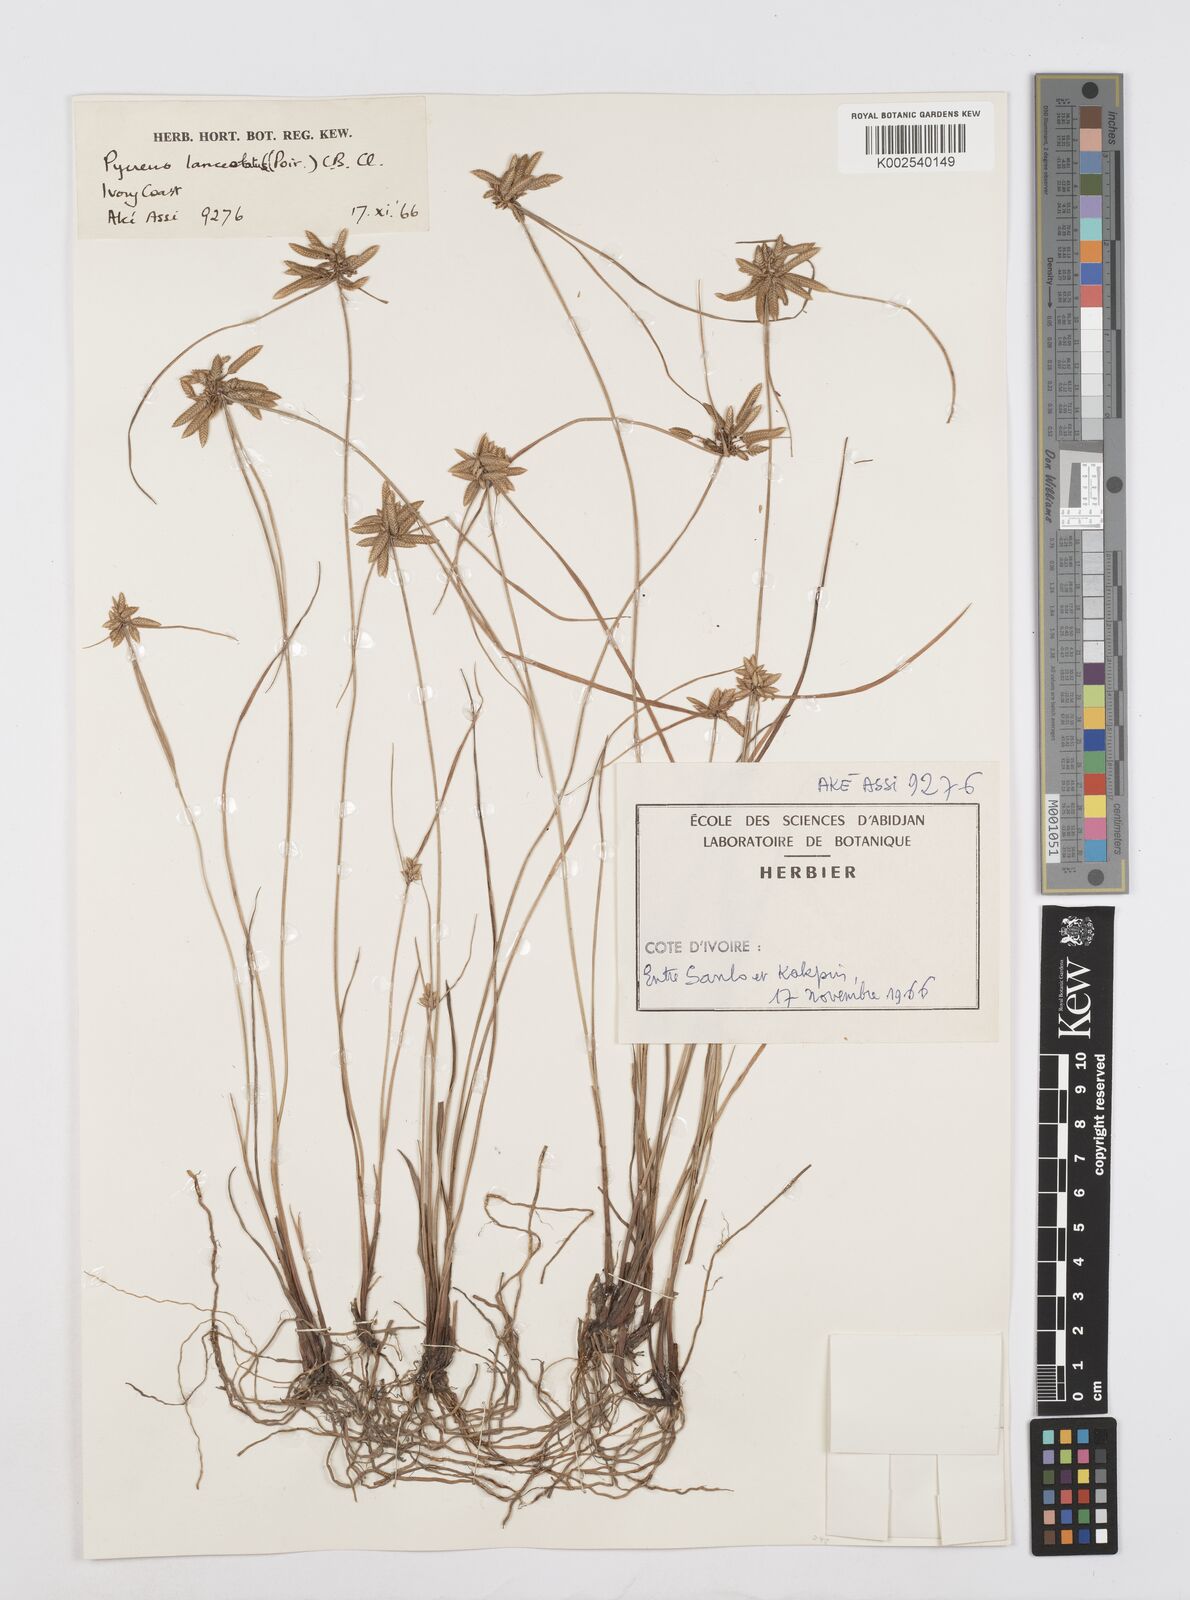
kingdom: Plantae
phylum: Tracheophyta
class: Liliopsida
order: Poales
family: Cyperaceae
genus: Cyperus
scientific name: Cyperus
